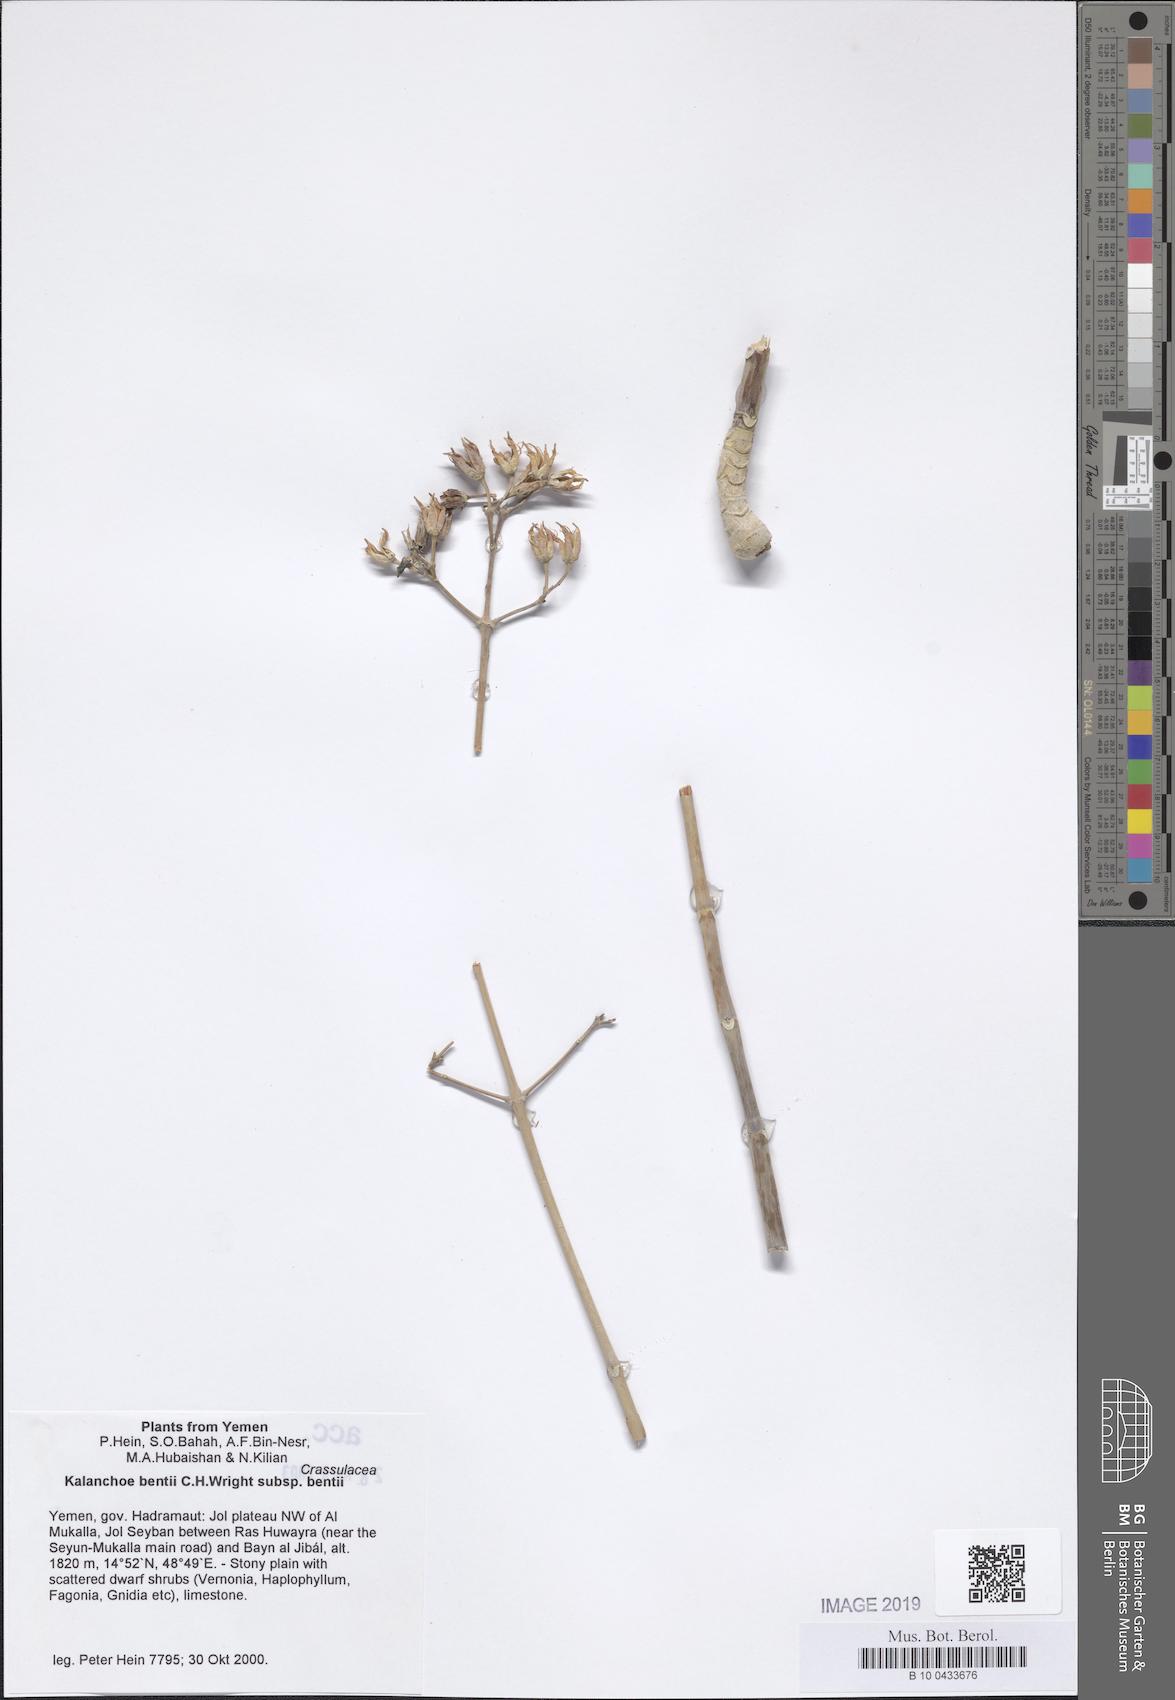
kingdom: Plantae
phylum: Tracheophyta
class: Magnoliopsida
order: Saxifragales
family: Crassulaceae
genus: Kalanchoe
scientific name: Kalanchoe bentii
